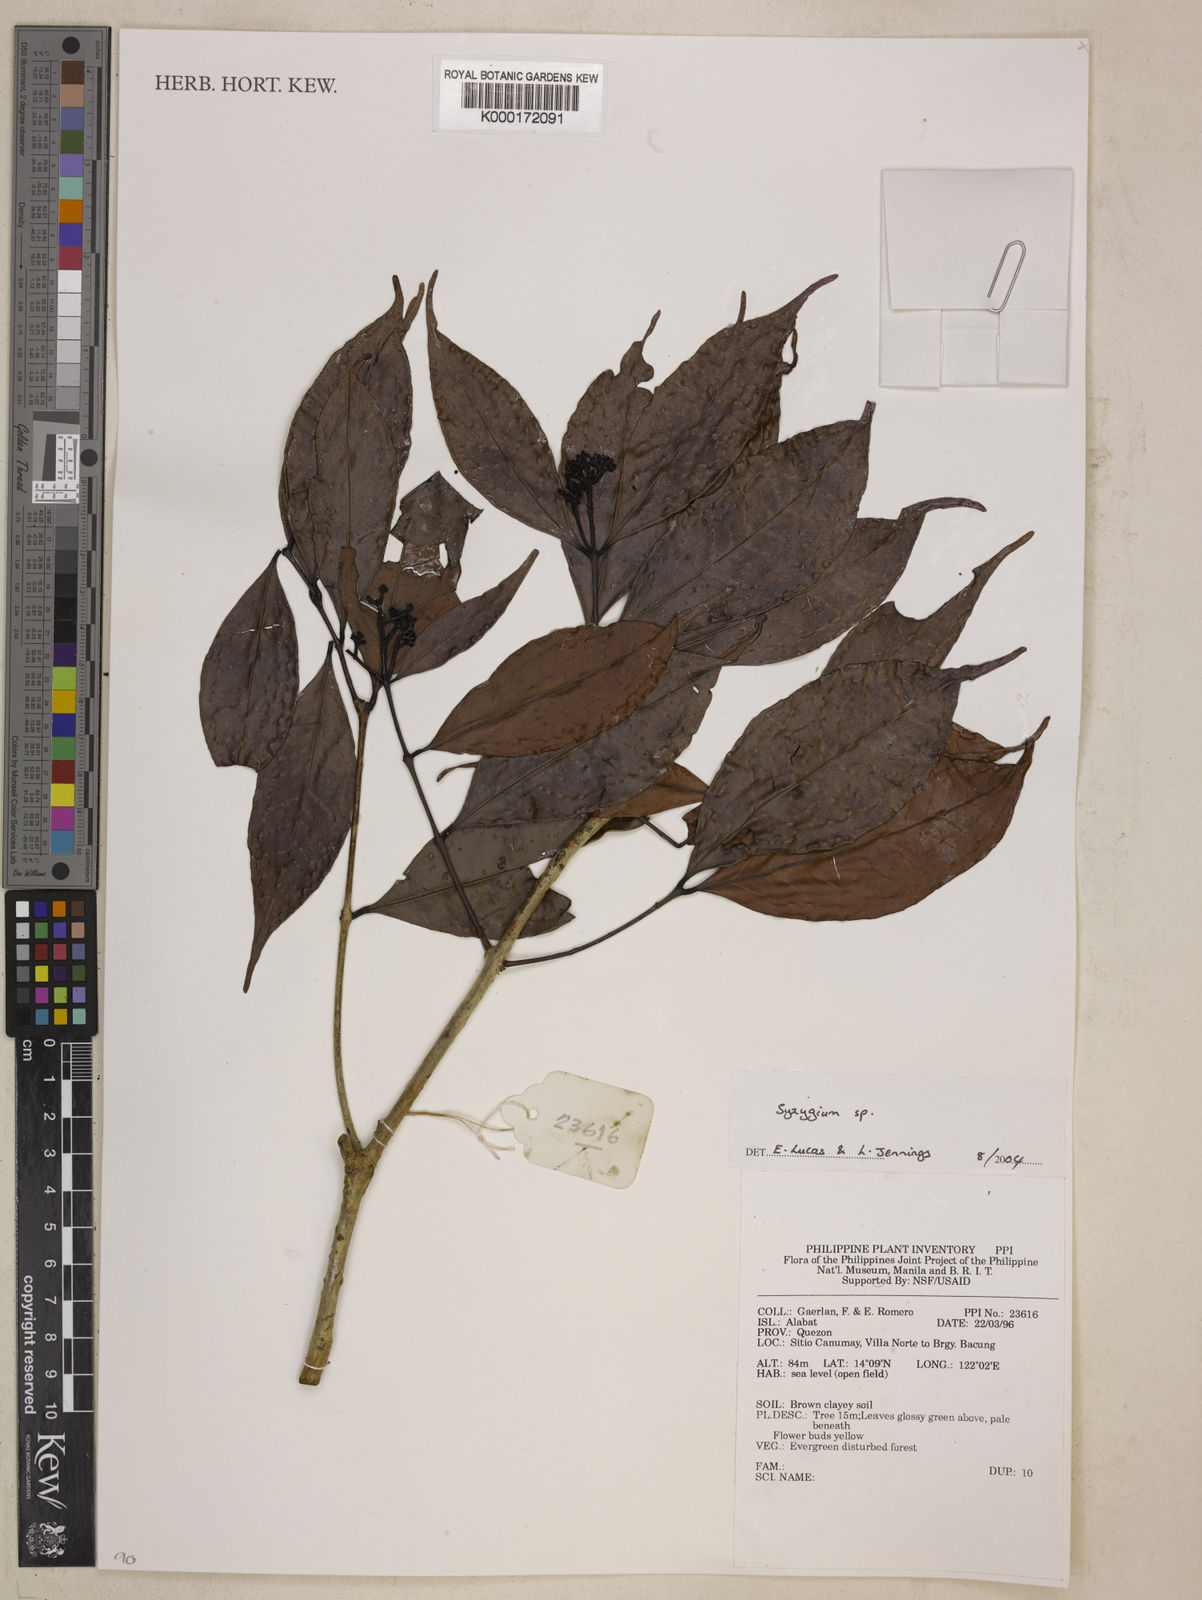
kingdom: Plantae
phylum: Tracheophyta
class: Magnoliopsida
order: Myrtales
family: Myrtaceae
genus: Syzygium
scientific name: Syzygium
